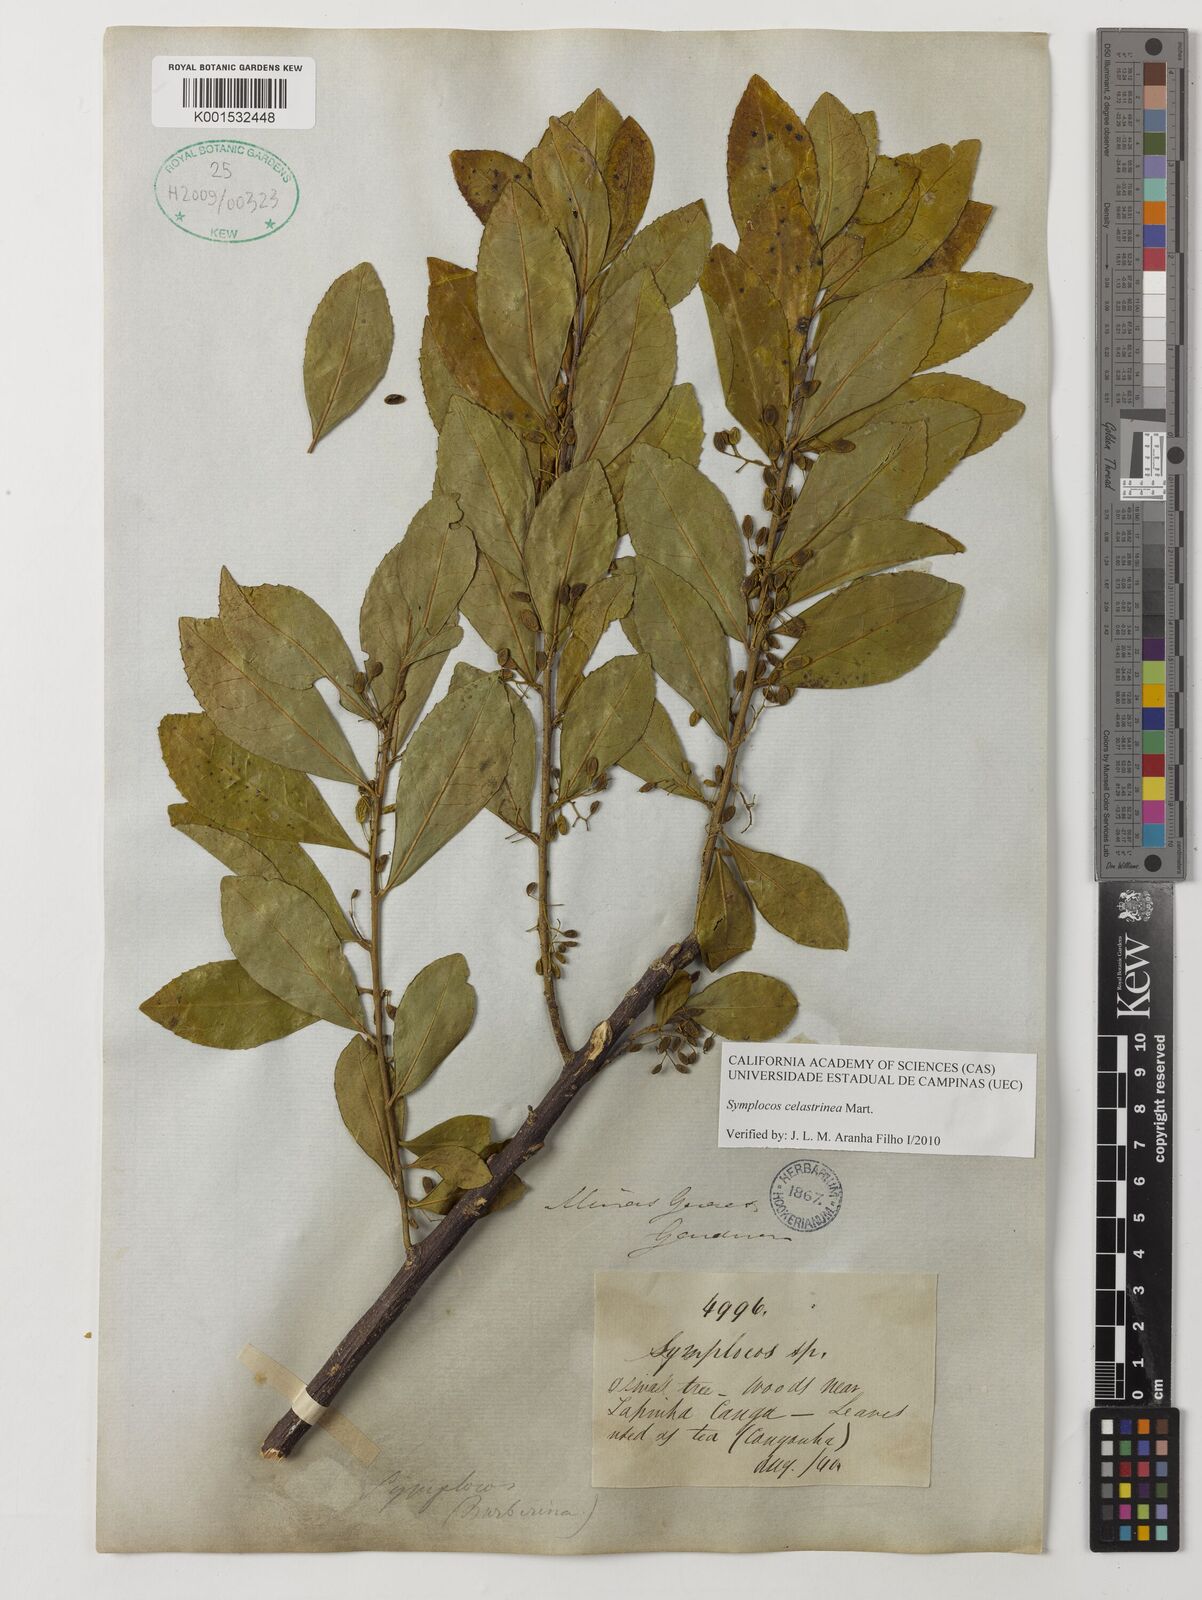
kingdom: Plantae
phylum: Tracheophyta
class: Magnoliopsida
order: Ericales
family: Symplocaceae
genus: Symplocos
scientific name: Symplocos celastrinea
